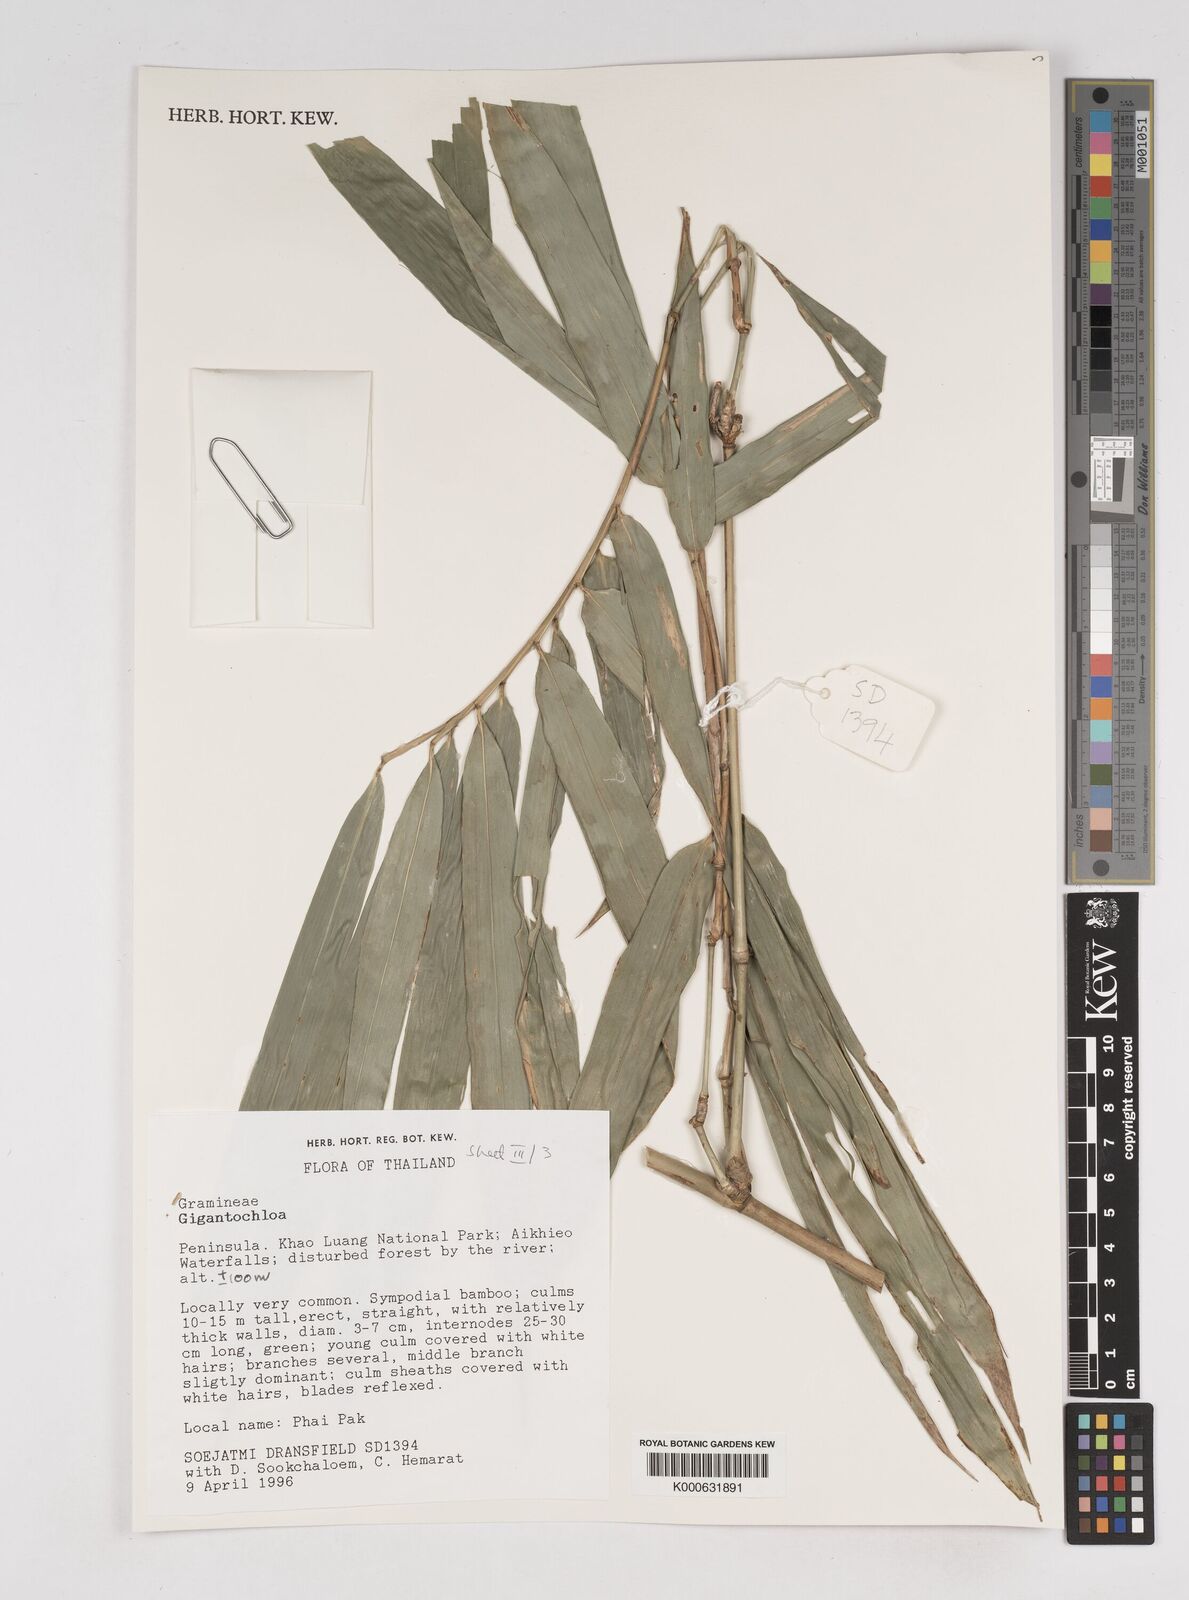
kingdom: Plantae
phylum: Tracheophyta
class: Liliopsida
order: Poales
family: Poaceae
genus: Gigantochloa
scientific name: Gigantochloa
